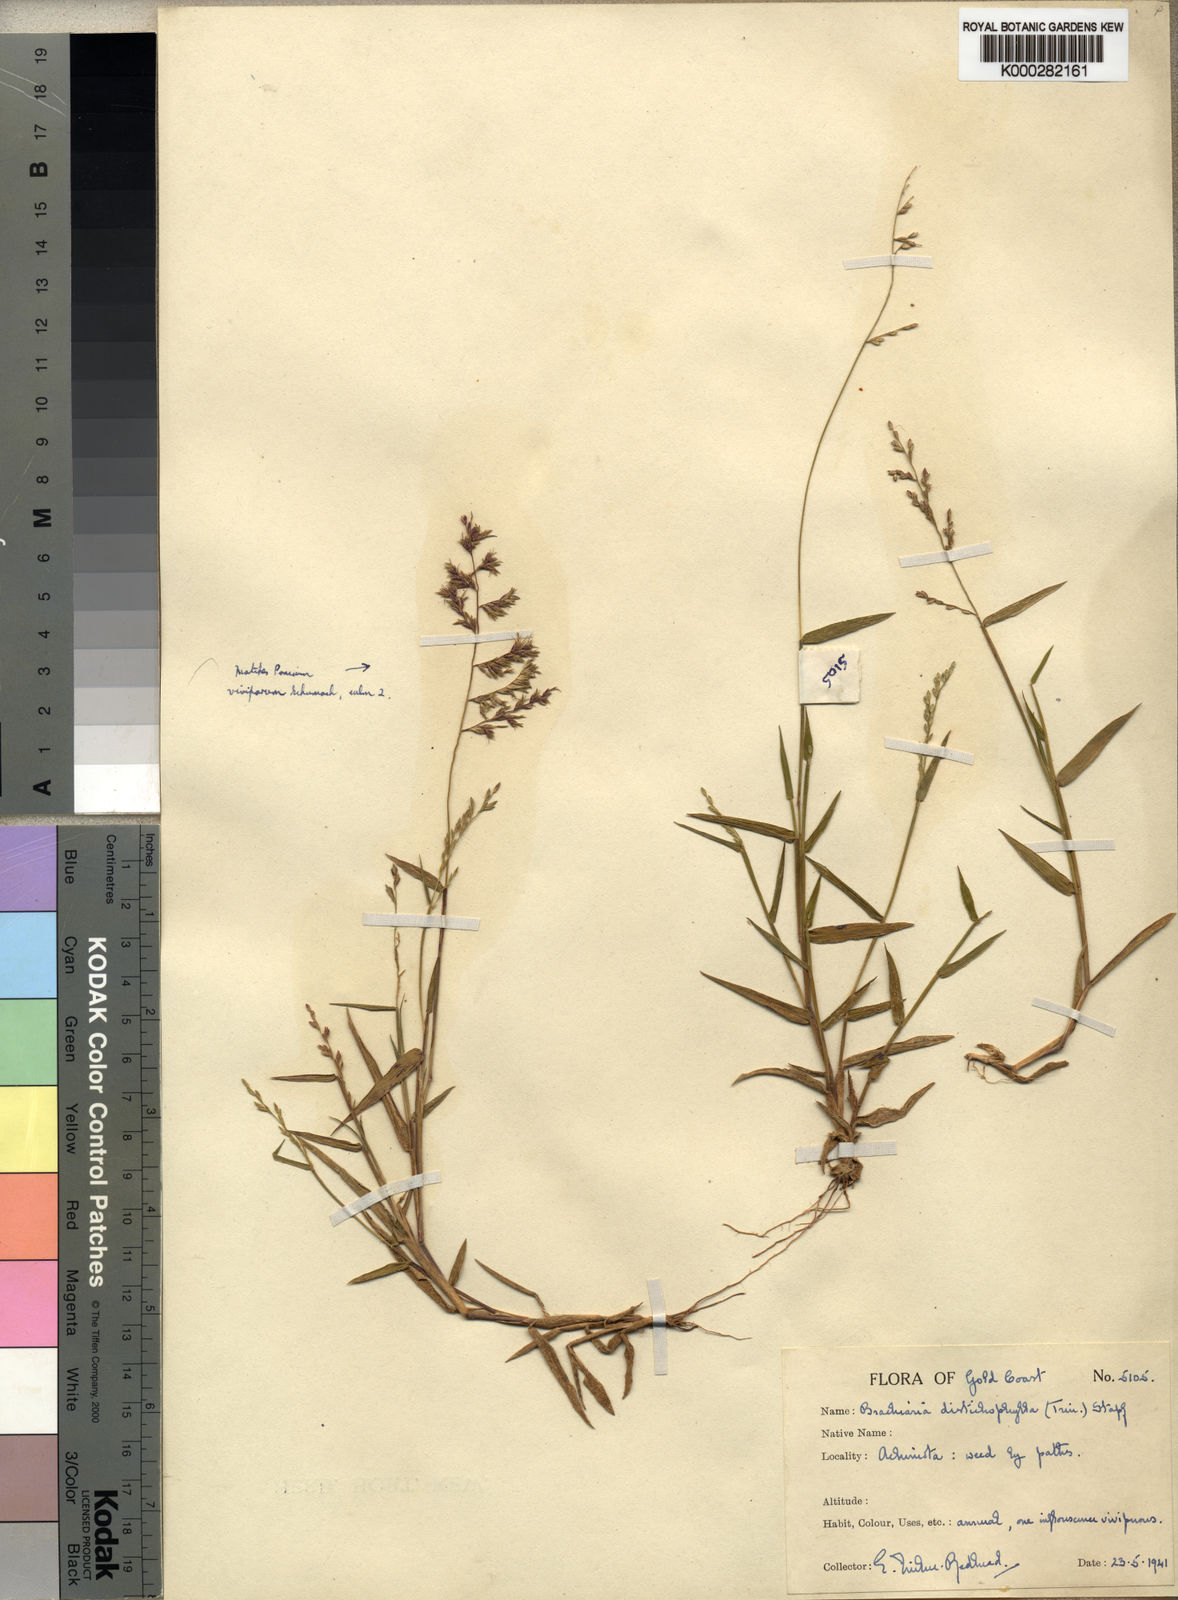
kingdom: Plantae
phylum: Tracheophyta
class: Liliopsida
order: Poales
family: Poaceae
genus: Urochloa
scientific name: Urochloa villosa
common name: Hairy signalgrass
